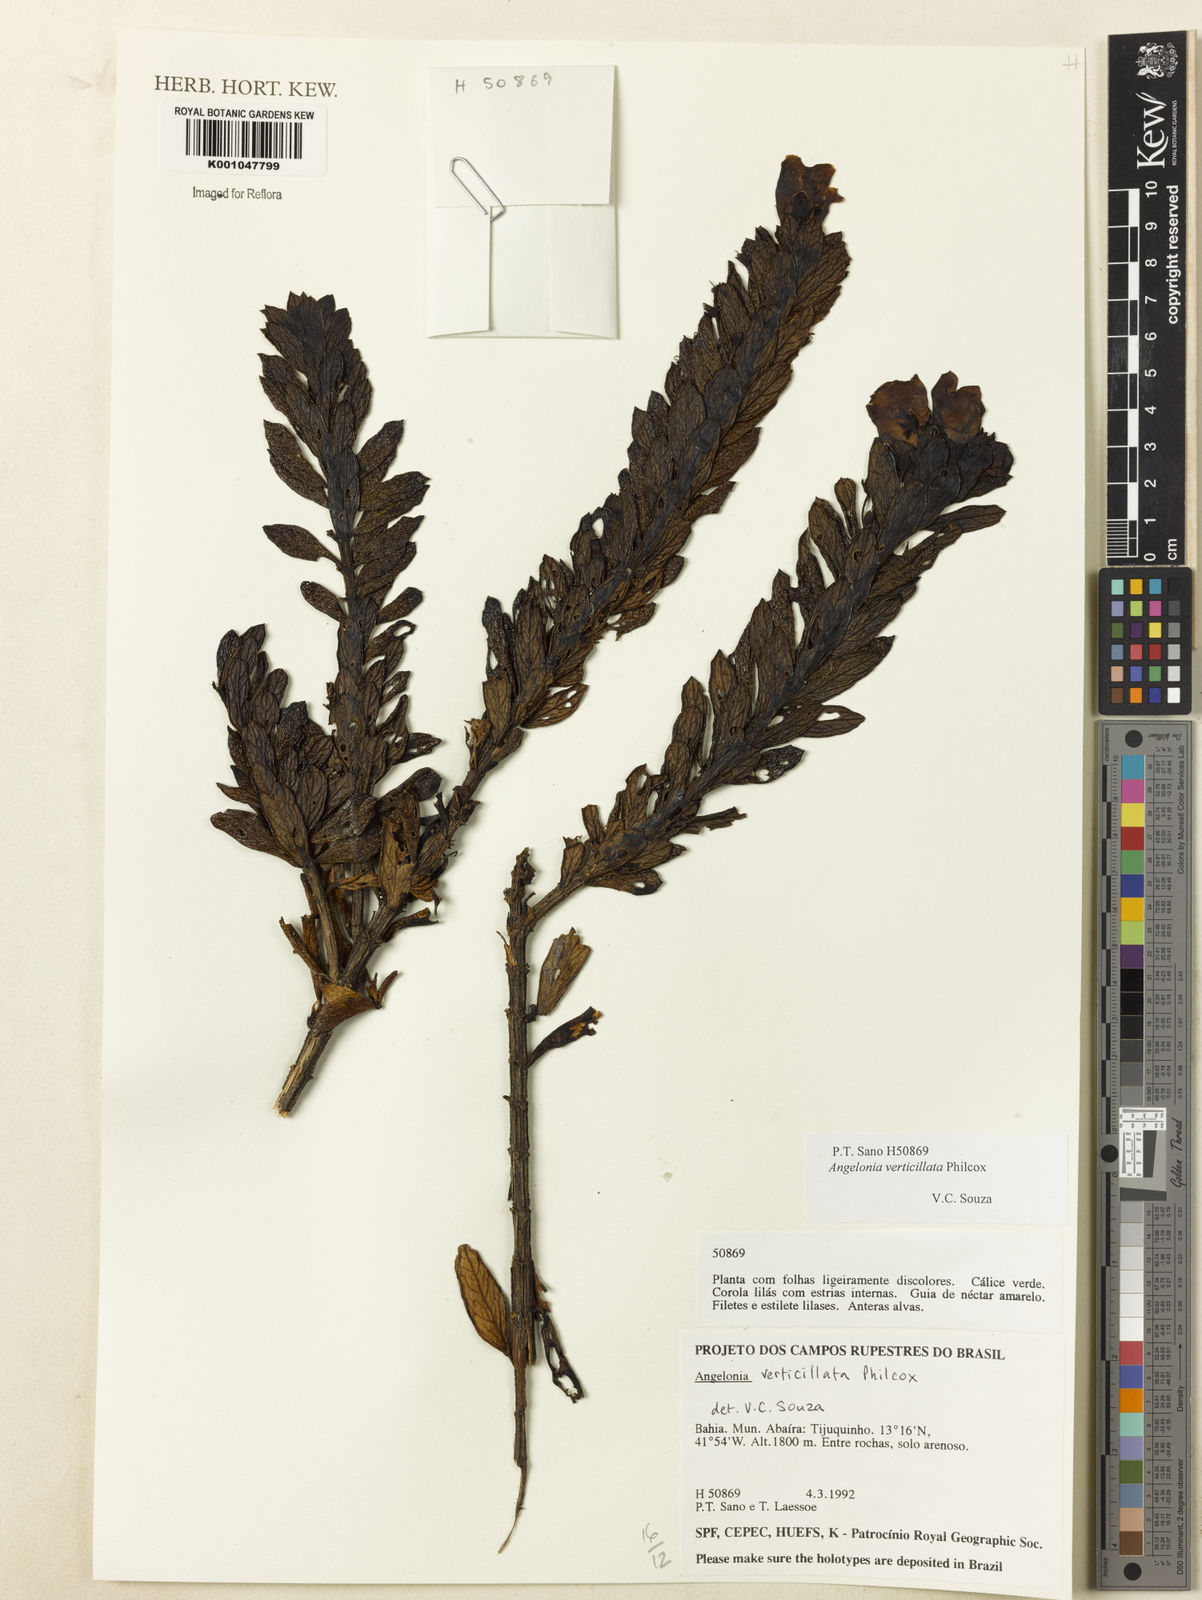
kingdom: Plantae
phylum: Tracheophyta
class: Magnoliopsida
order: Lamiales
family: Plantaginaceae
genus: Angelonia
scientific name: Angelonia verticillata
